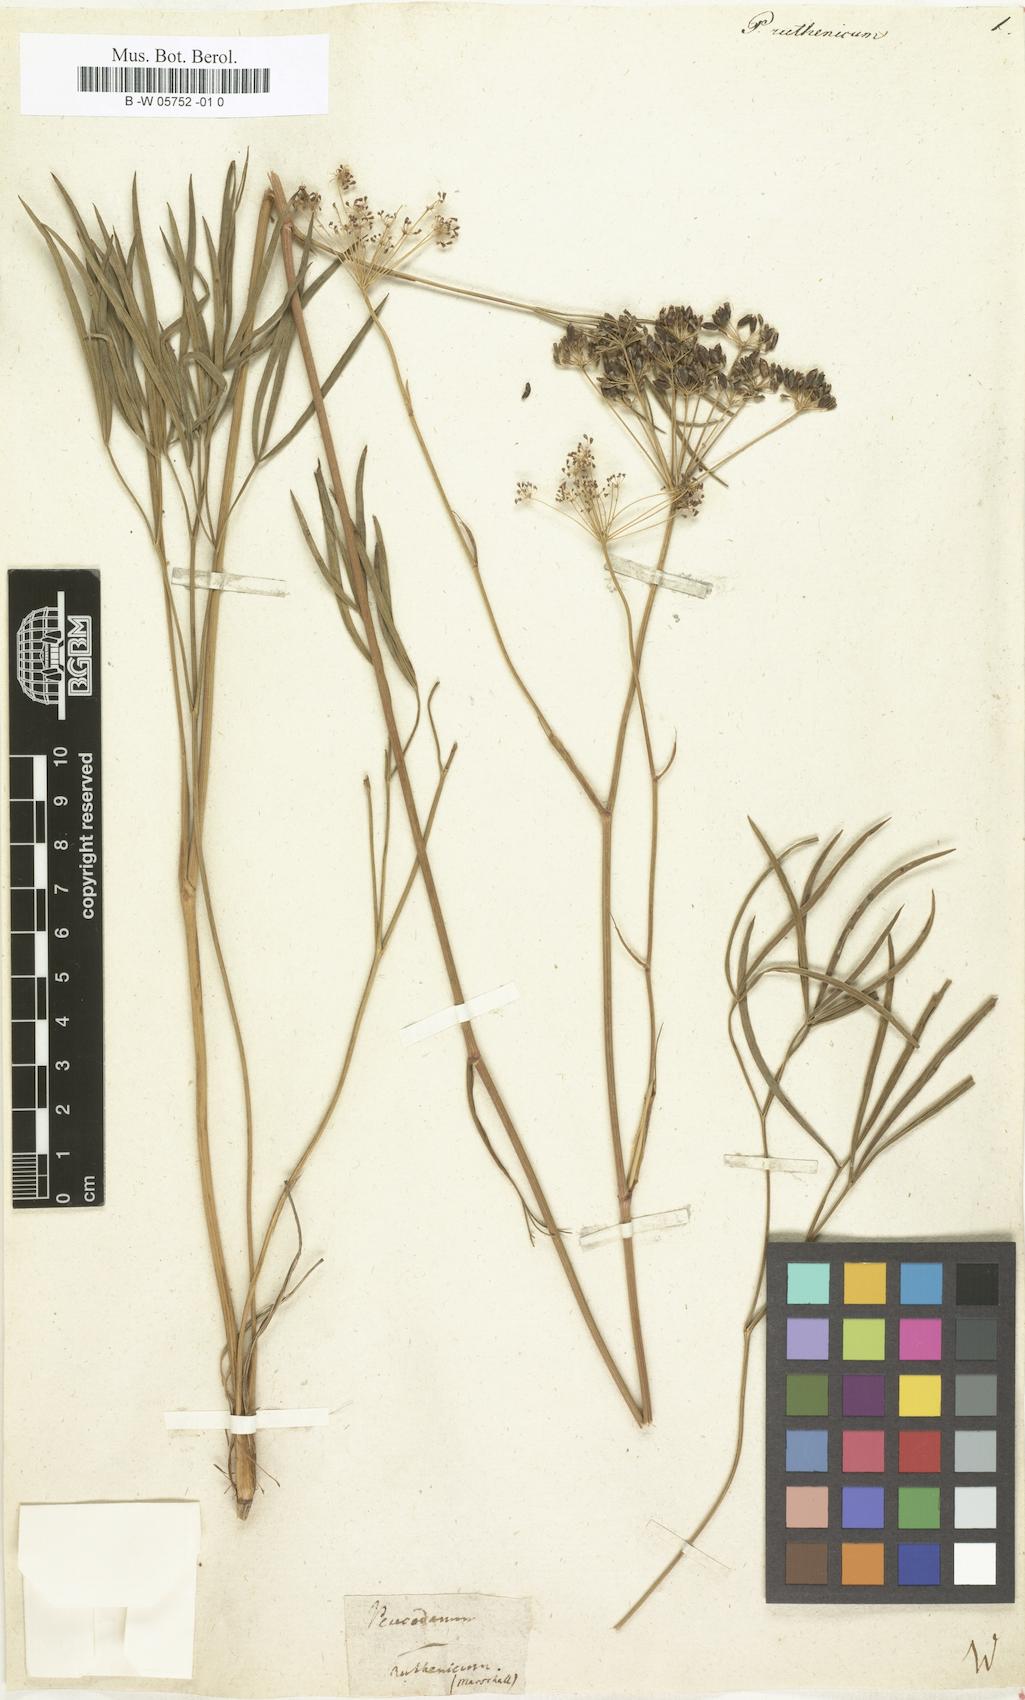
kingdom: Plantae
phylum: Tracheophyta
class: Magnoliopsida
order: Apiales
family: Apiaceae
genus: Peucedanum
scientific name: Peucedanum ruthenicum
